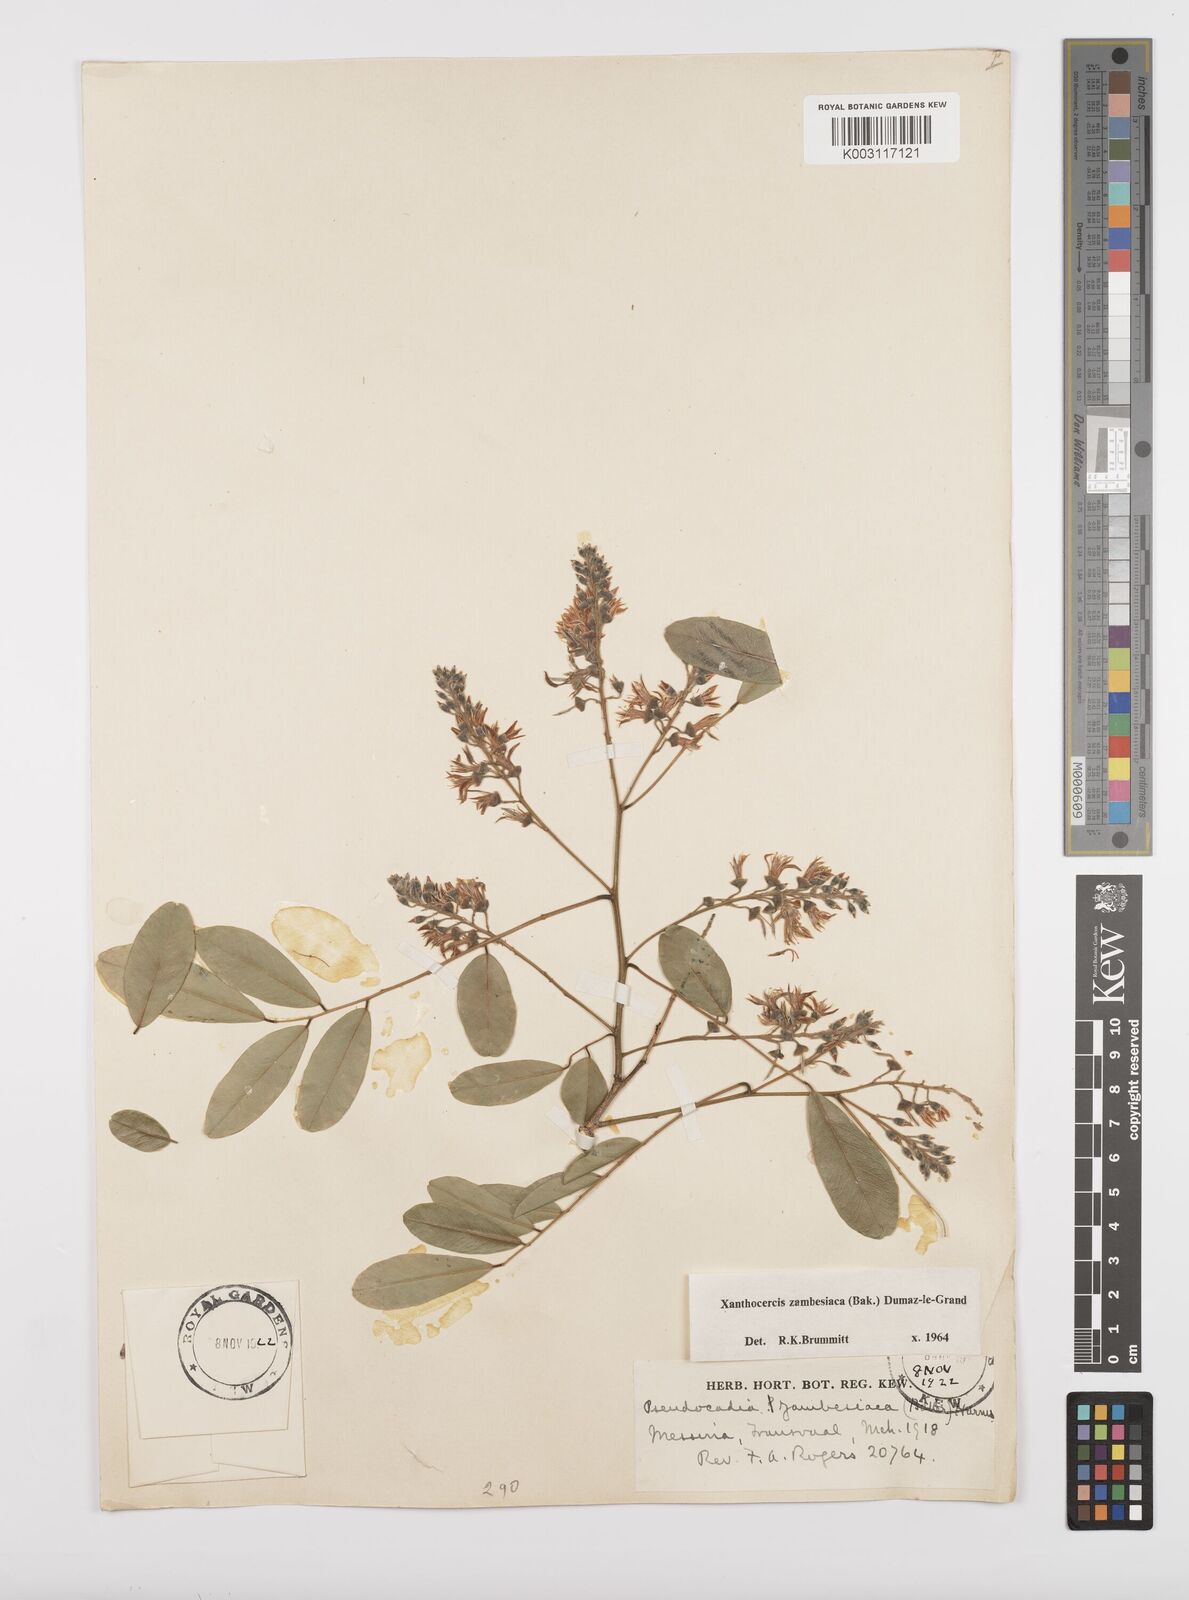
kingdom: Plantae
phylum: Tracheophyta
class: Magnoliopsida
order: Fabales
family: Fabaceae
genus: Xanthocercis
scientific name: Xanthocercis zambesiaca
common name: Nyala-tree
